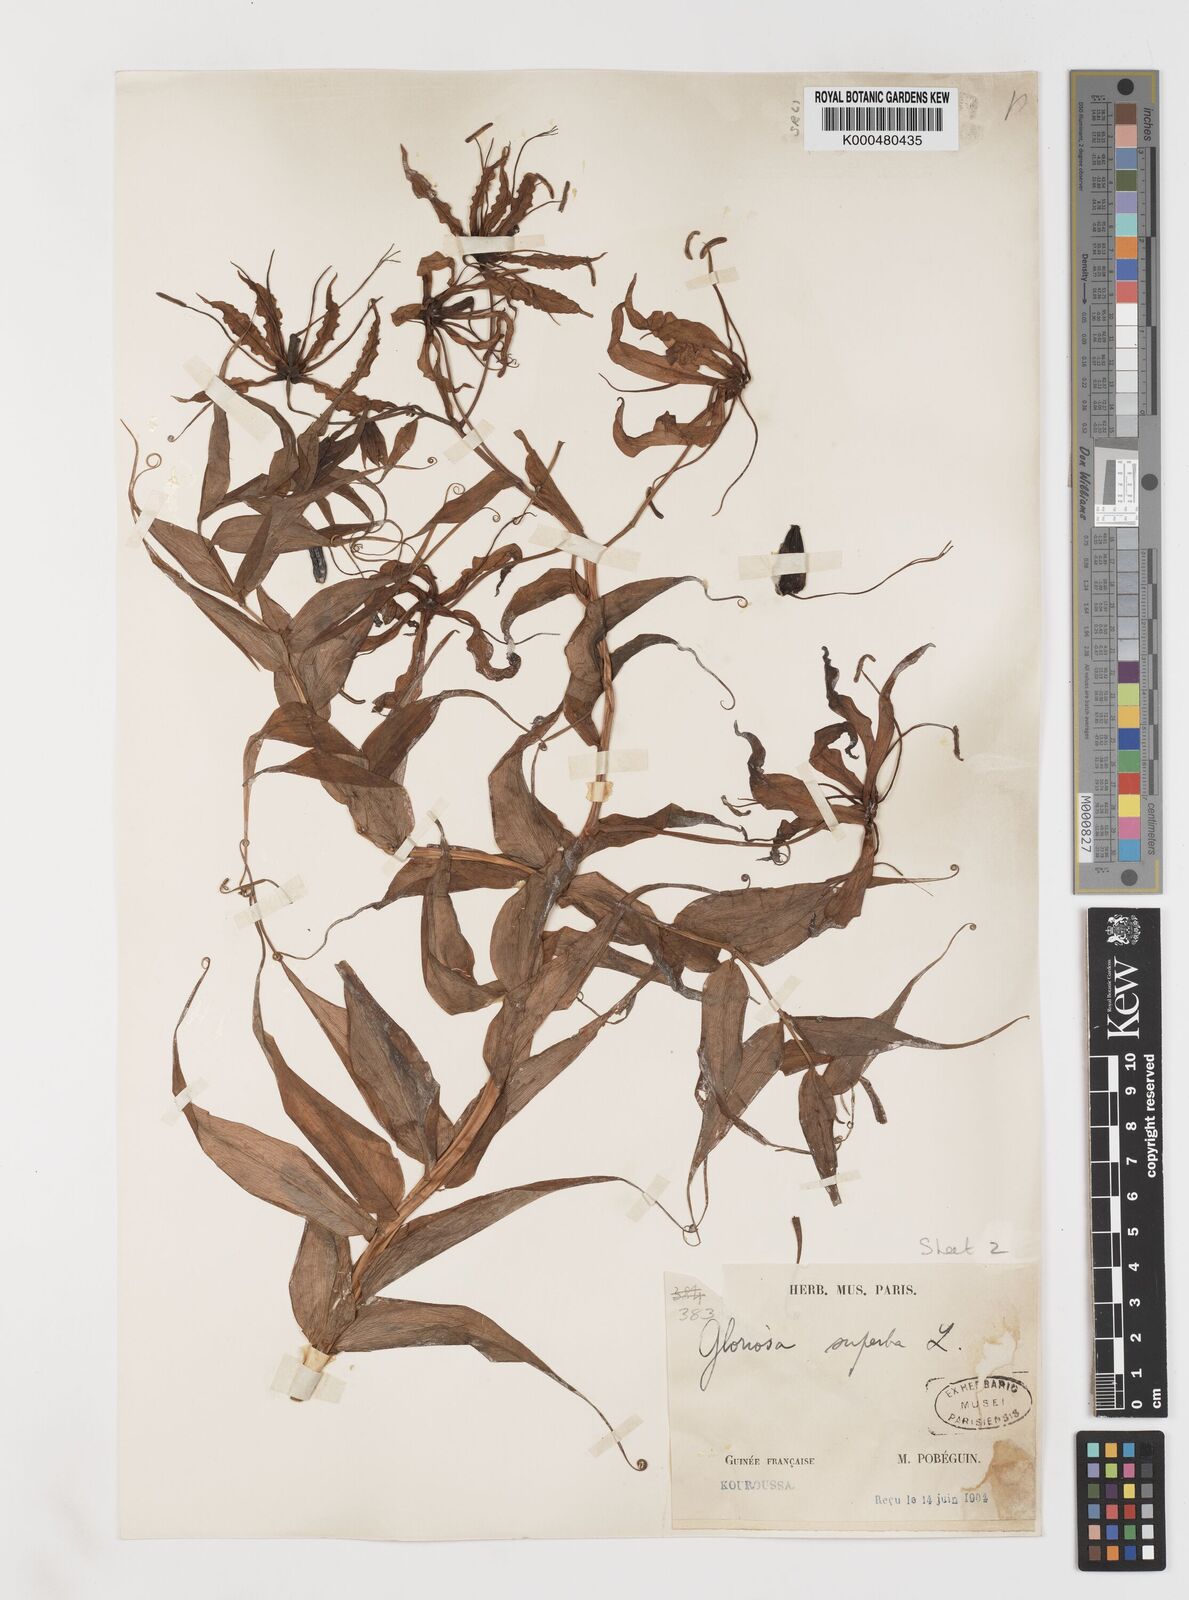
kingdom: Plantae
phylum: Tracheophyta
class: Liliopsida
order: Liliales
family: Colchicaceae
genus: Gloriosa
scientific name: Gloriosa superba
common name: Flame lily
